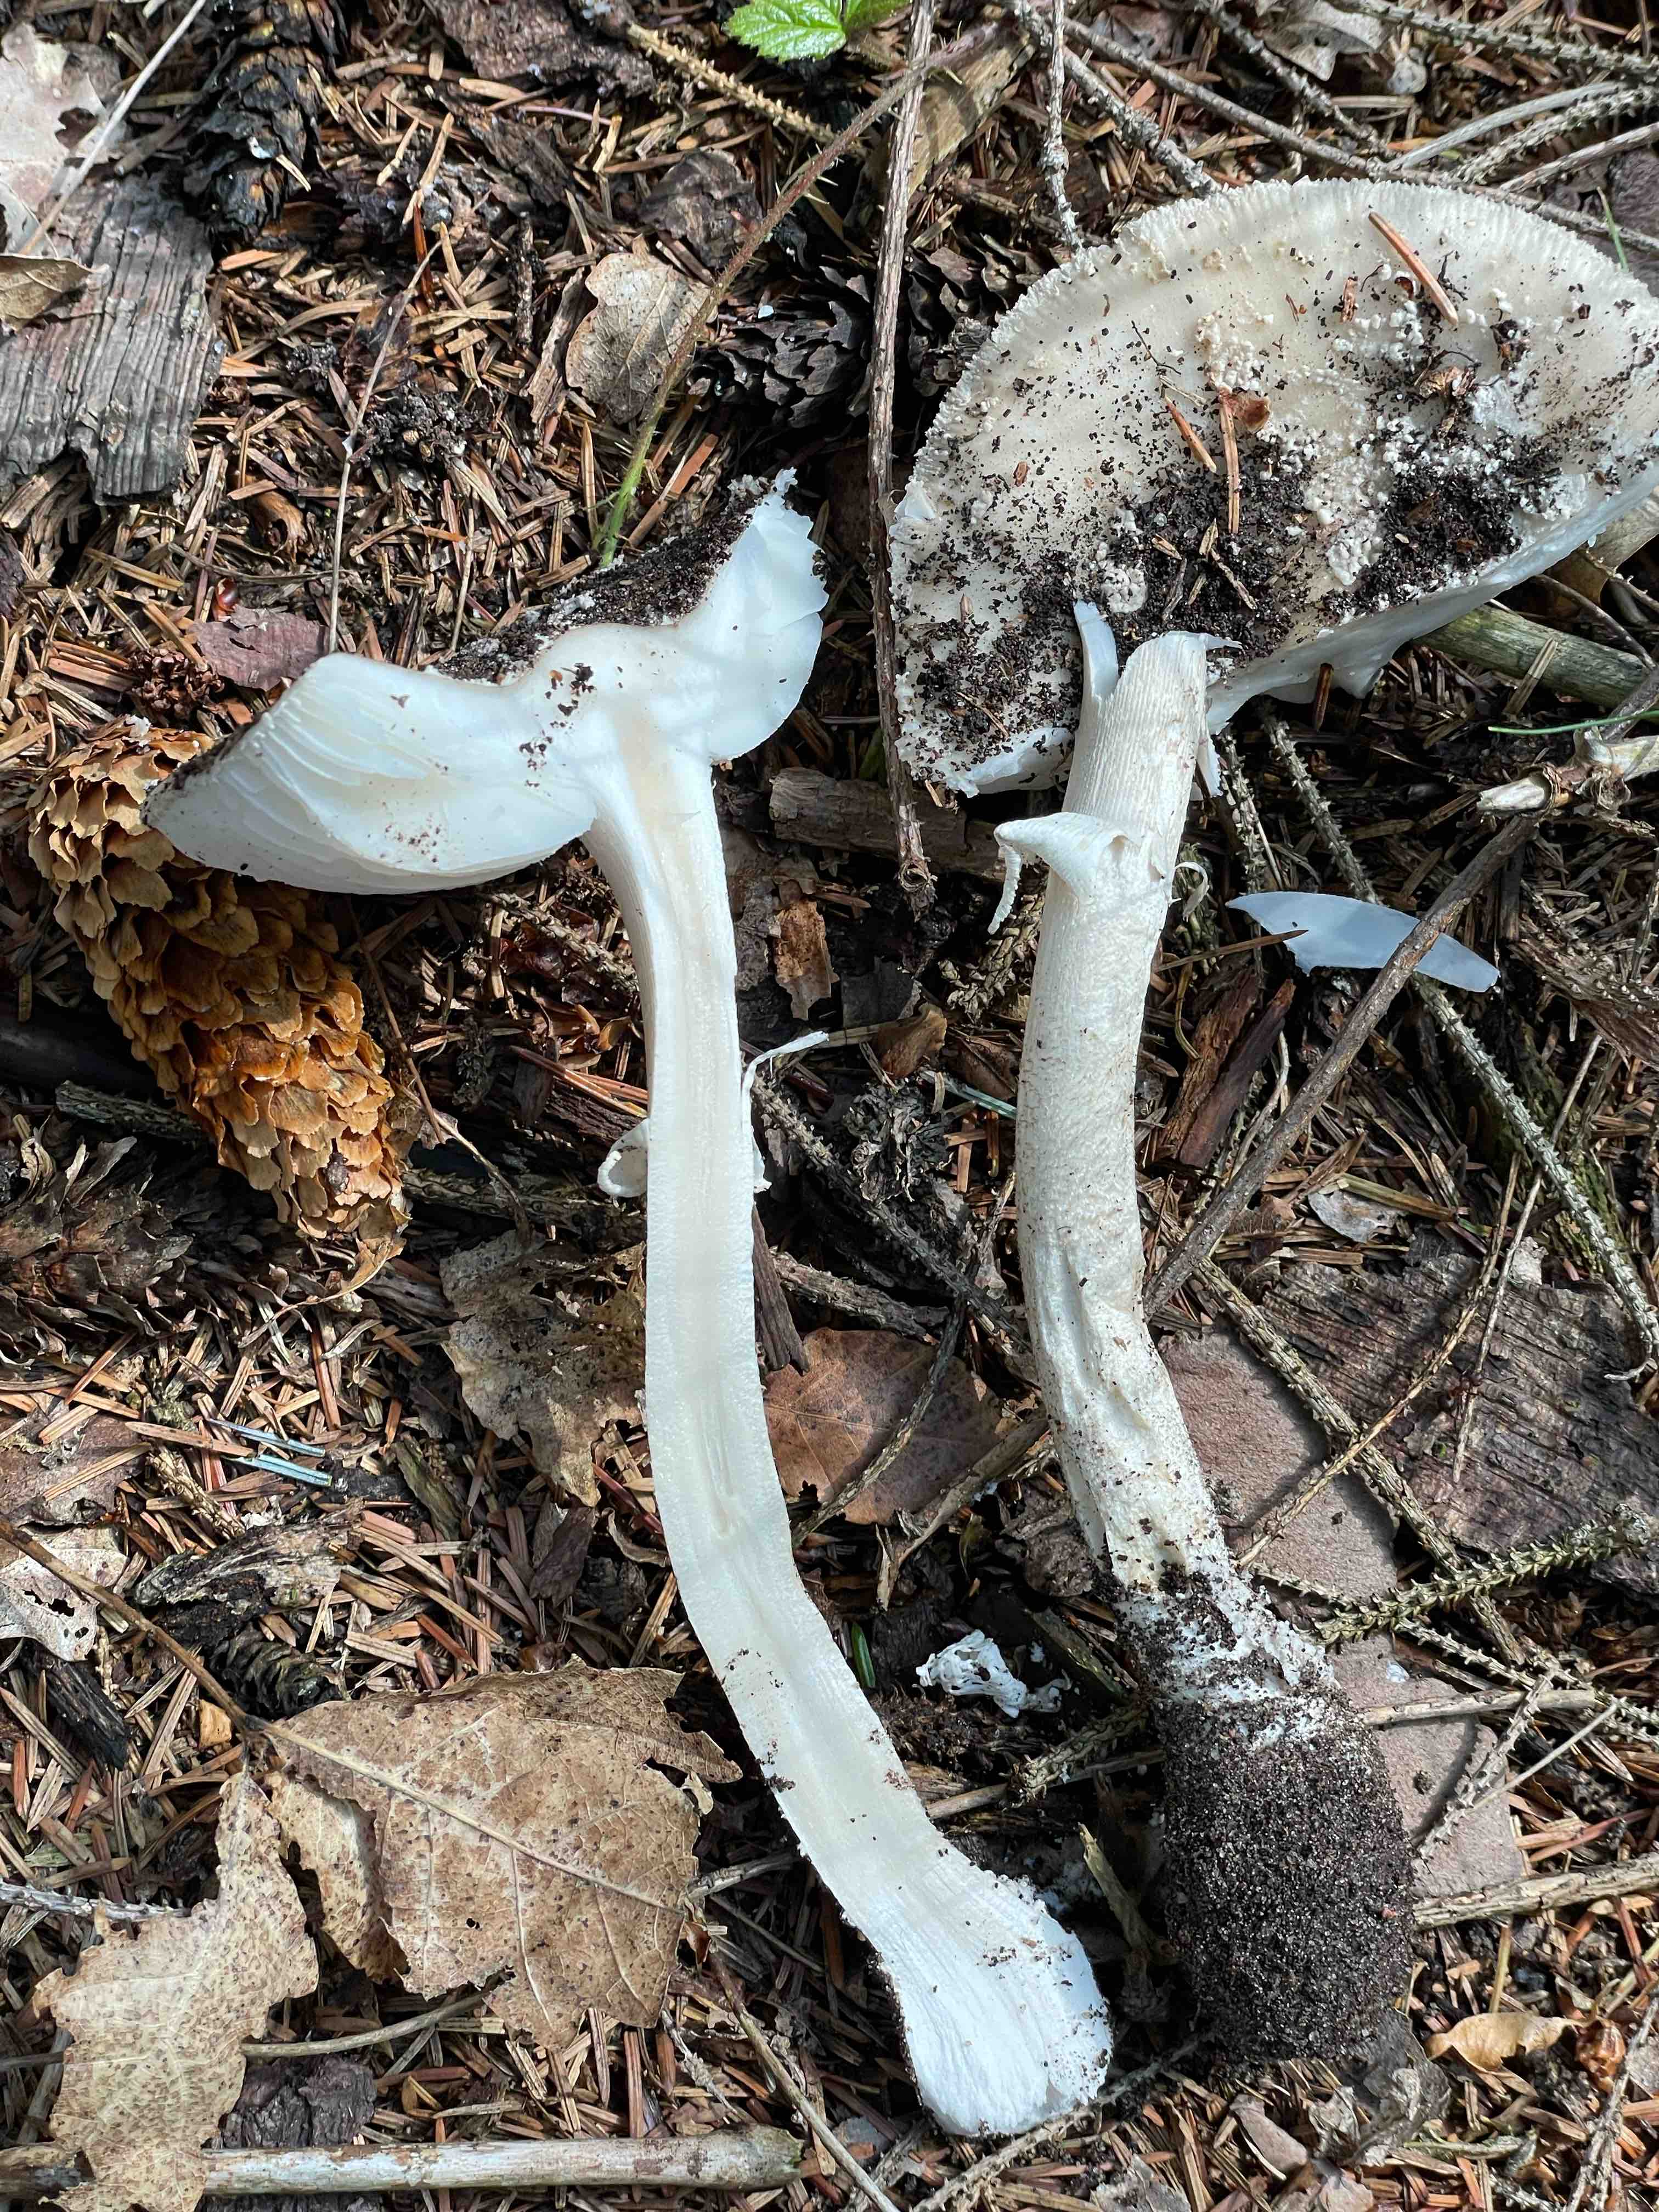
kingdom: Fungi
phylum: Basidiomycota
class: Agaricomycetes
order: Agaricales
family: Amanitaceae
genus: Amanita
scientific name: Amanita
